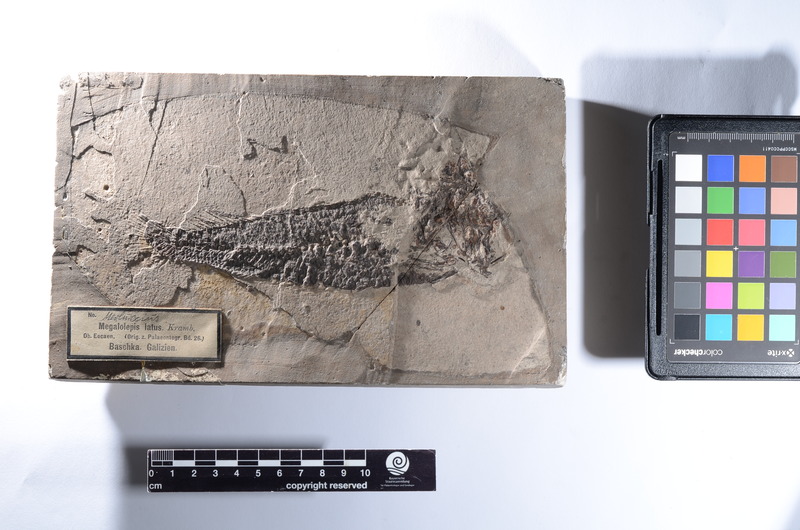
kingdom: Animalia
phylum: Chordata
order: Gadiformes
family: Merlucciidae
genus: Merluccius
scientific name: Merluccius
